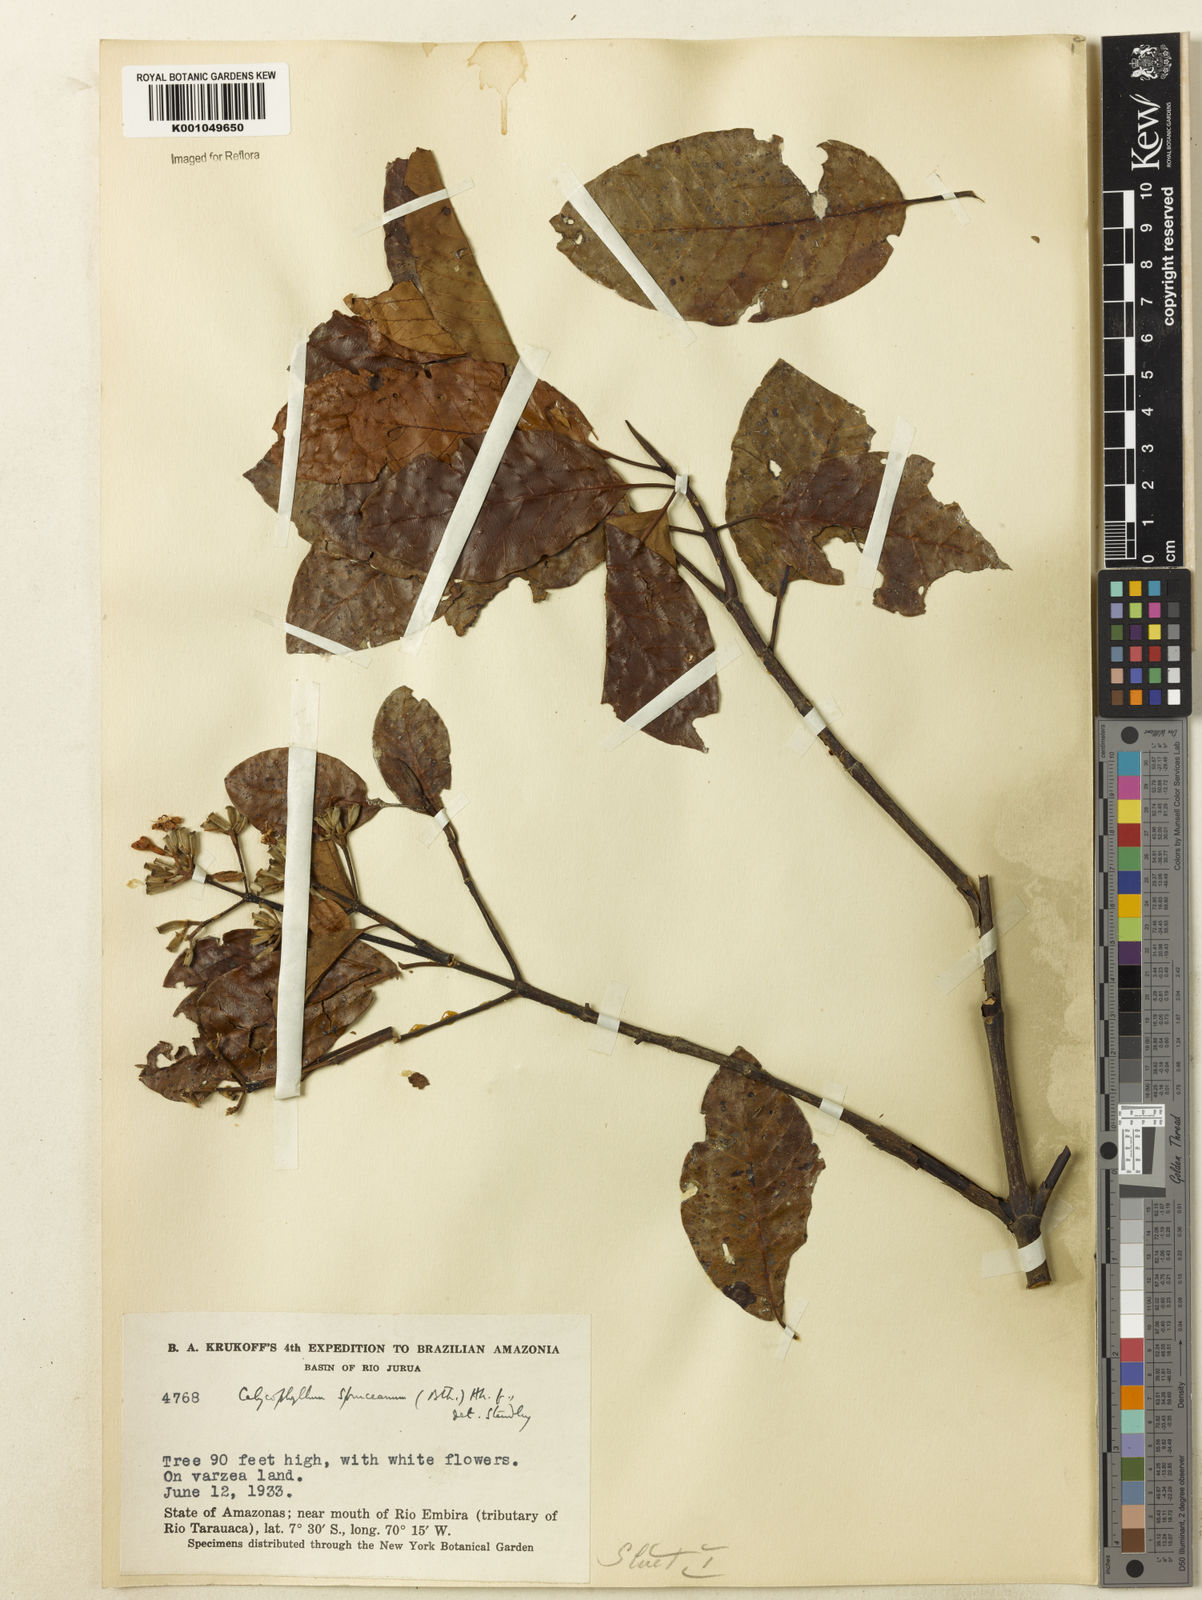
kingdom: Plantae
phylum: Tracheophyta
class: Magnoliopsida
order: Gentianales
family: Rubiaceae
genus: Calycophyllum
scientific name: Calycophyllum spruceanum
